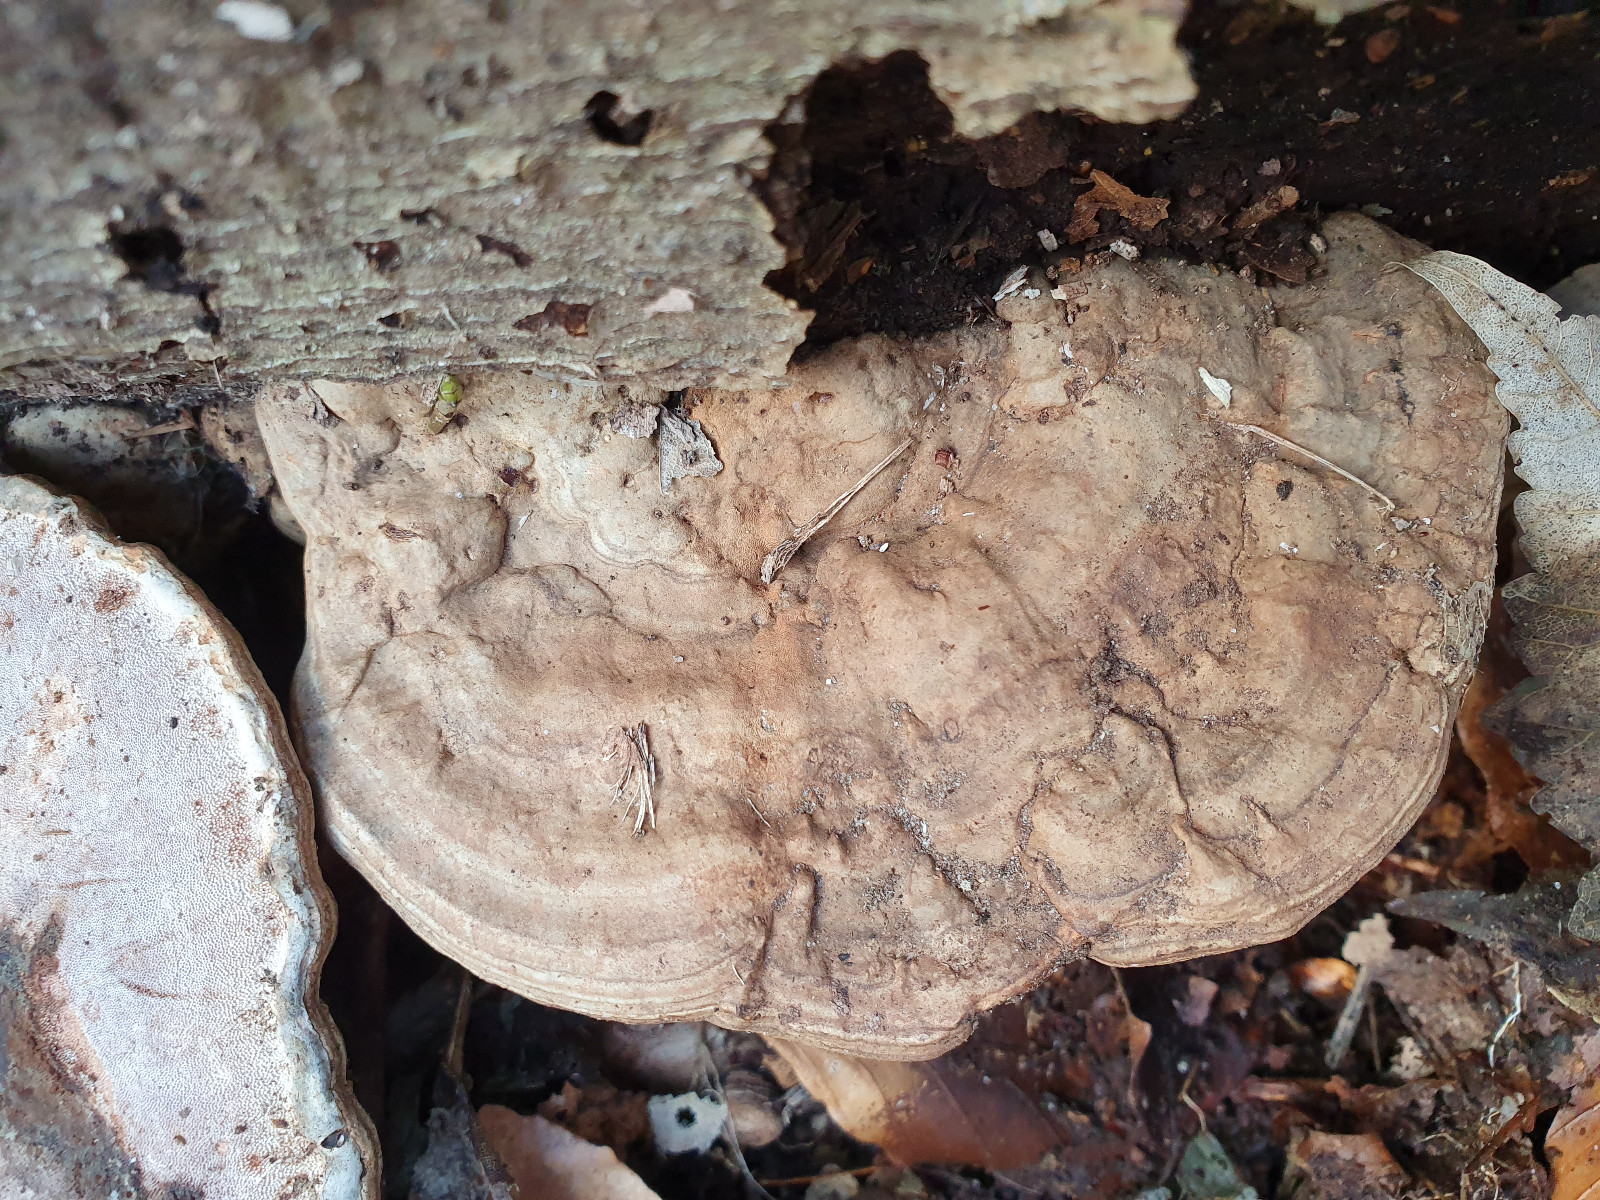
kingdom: Fungi
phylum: Basidiomycota
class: Agaricomycetes
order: Polyporales
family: Polyporaceae
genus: Ganoderma
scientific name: Ganoderma applanatum
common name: flad lakporesvamp
